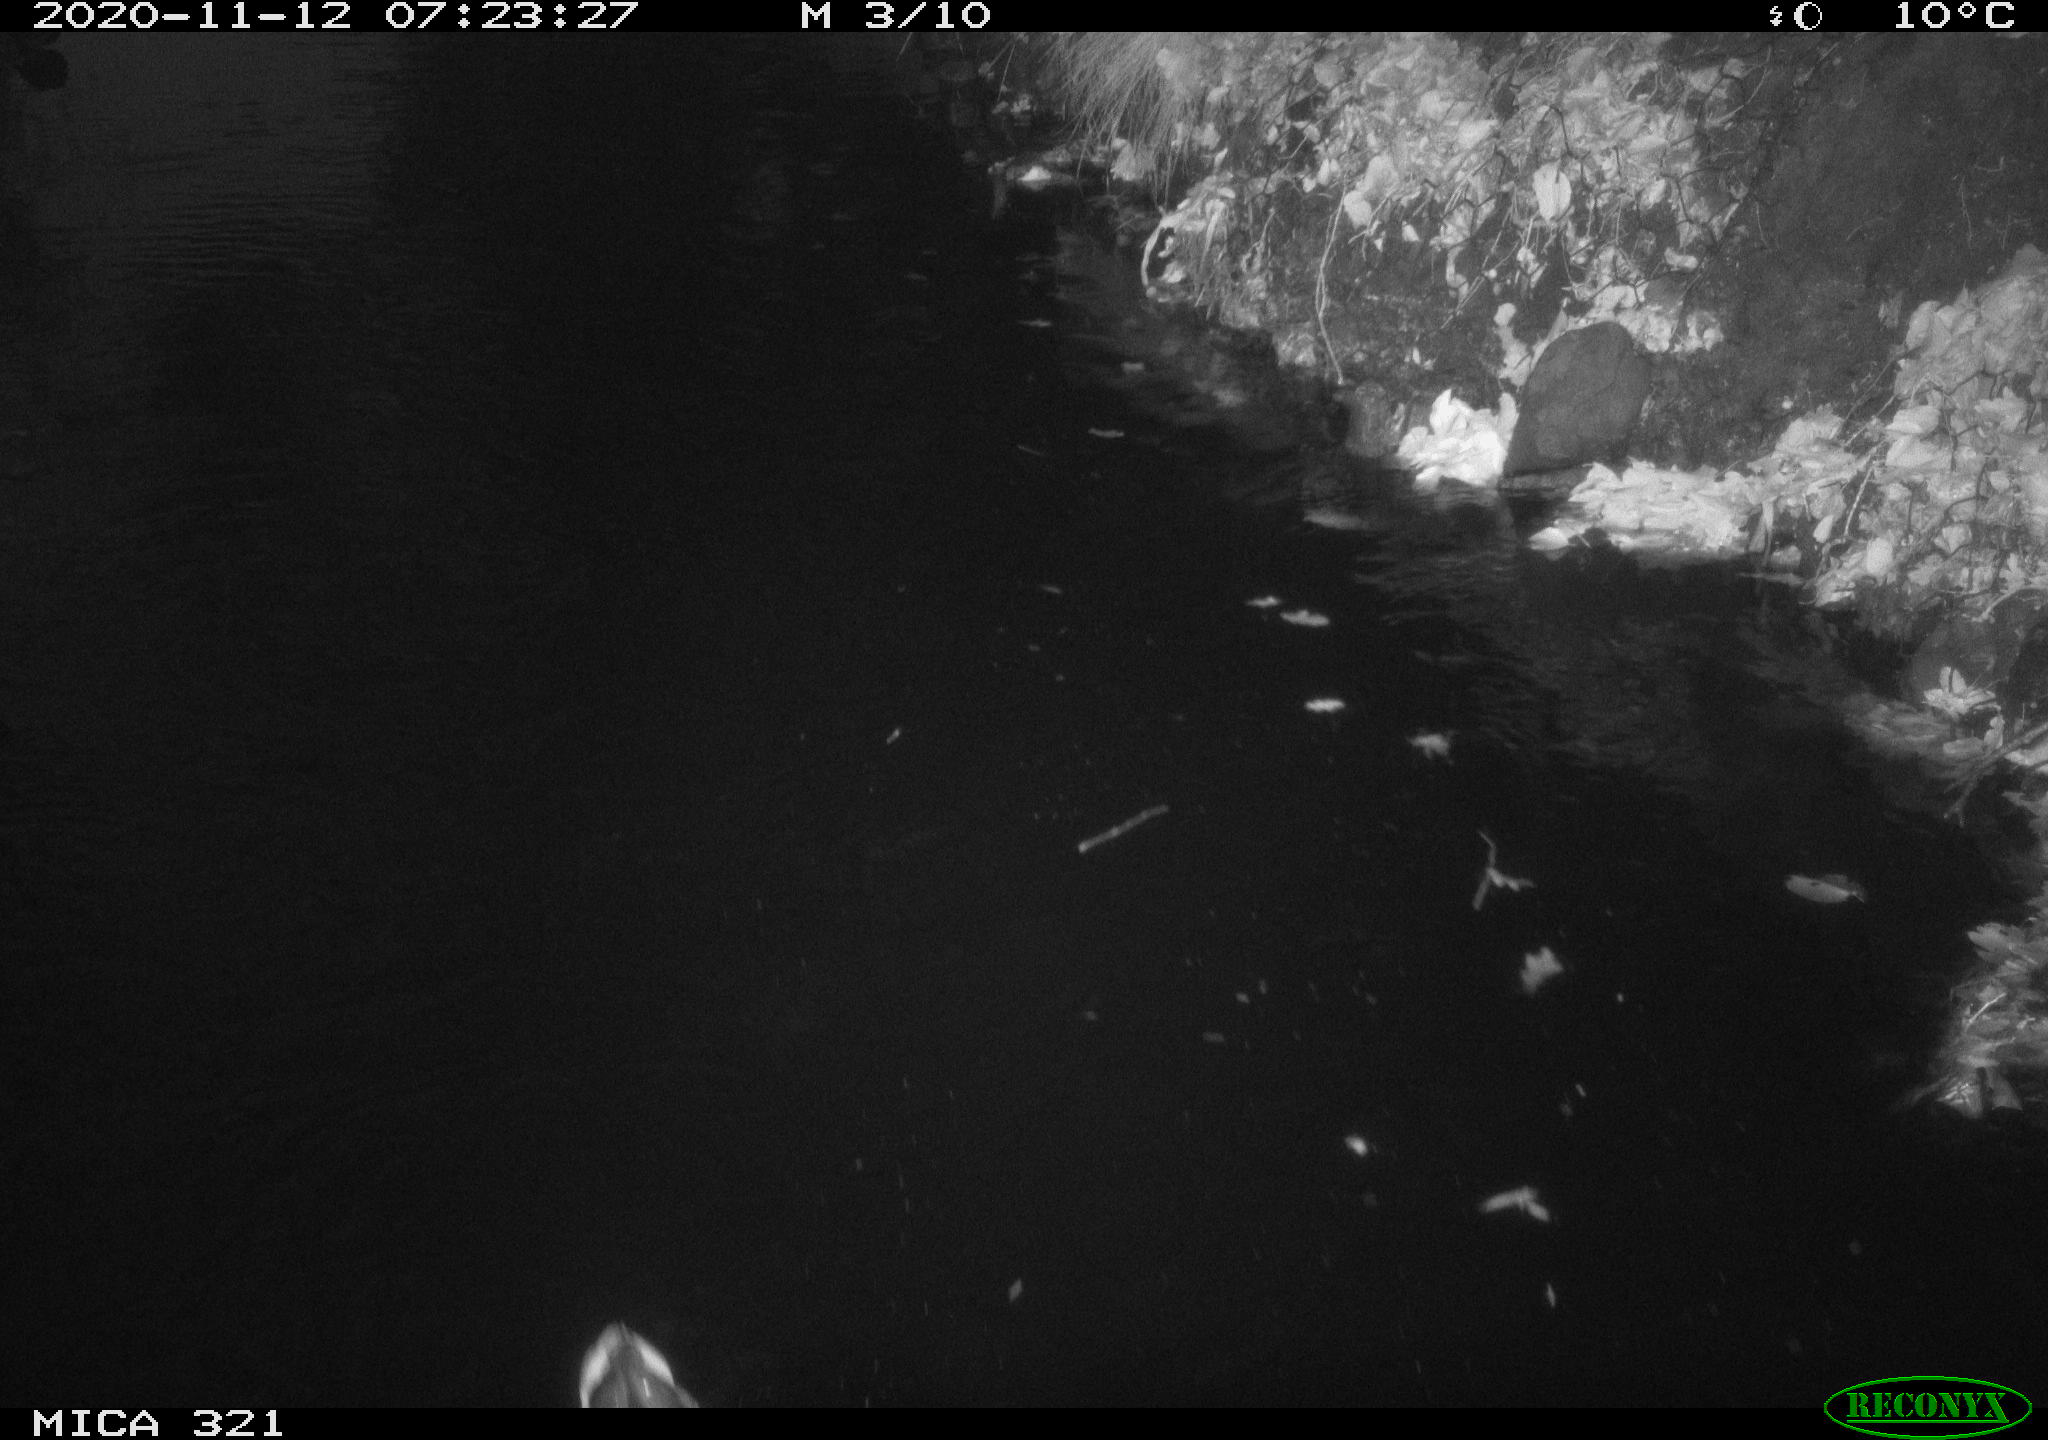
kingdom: Animalia
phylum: Chordata
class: Aves
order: Anseriformes
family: Anatidae
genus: Anas
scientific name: Anas platyrhynchos
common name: Mallard
